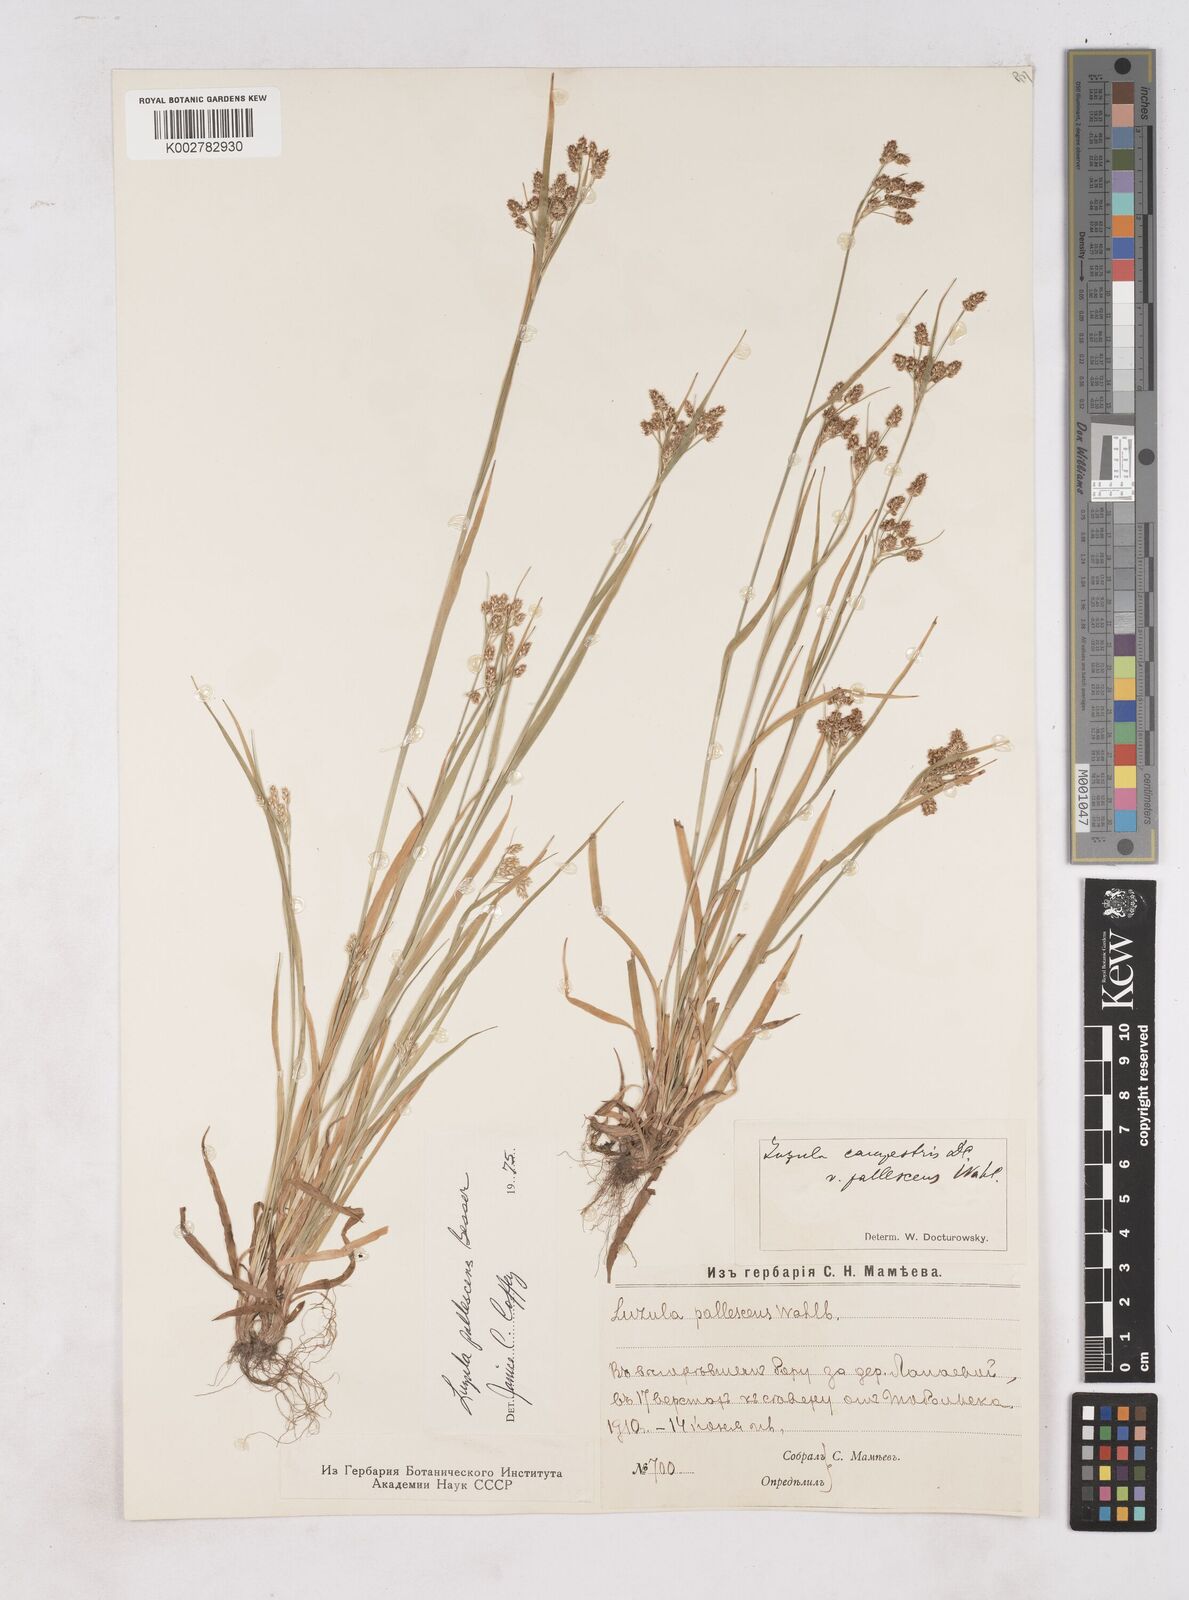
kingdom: Plantae
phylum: Tracheophyta
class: Liliopsida
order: Poales
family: Juncaceae
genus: Luzula
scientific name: Luzula campestris
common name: Field wood-rush
